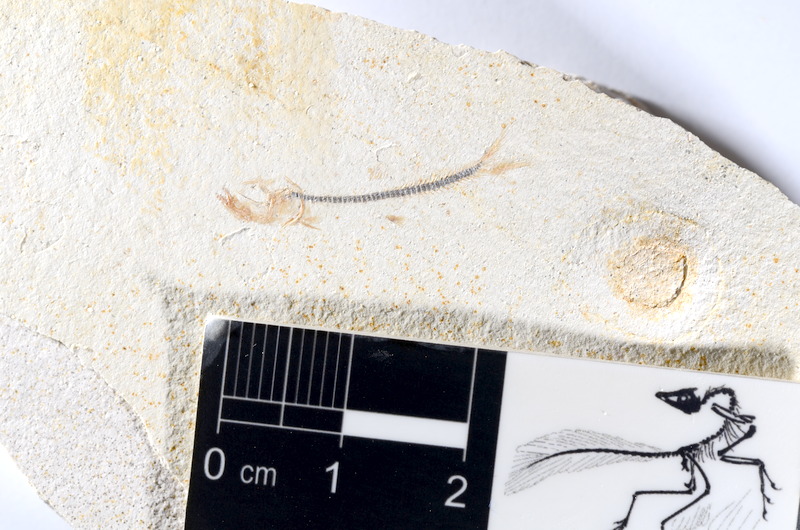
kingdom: Animalia
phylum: Chordata
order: Salmoniformes
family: Orthogonikleithridae
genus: Orthogonikleithrus
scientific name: Orthogonikleithrus hoelli
